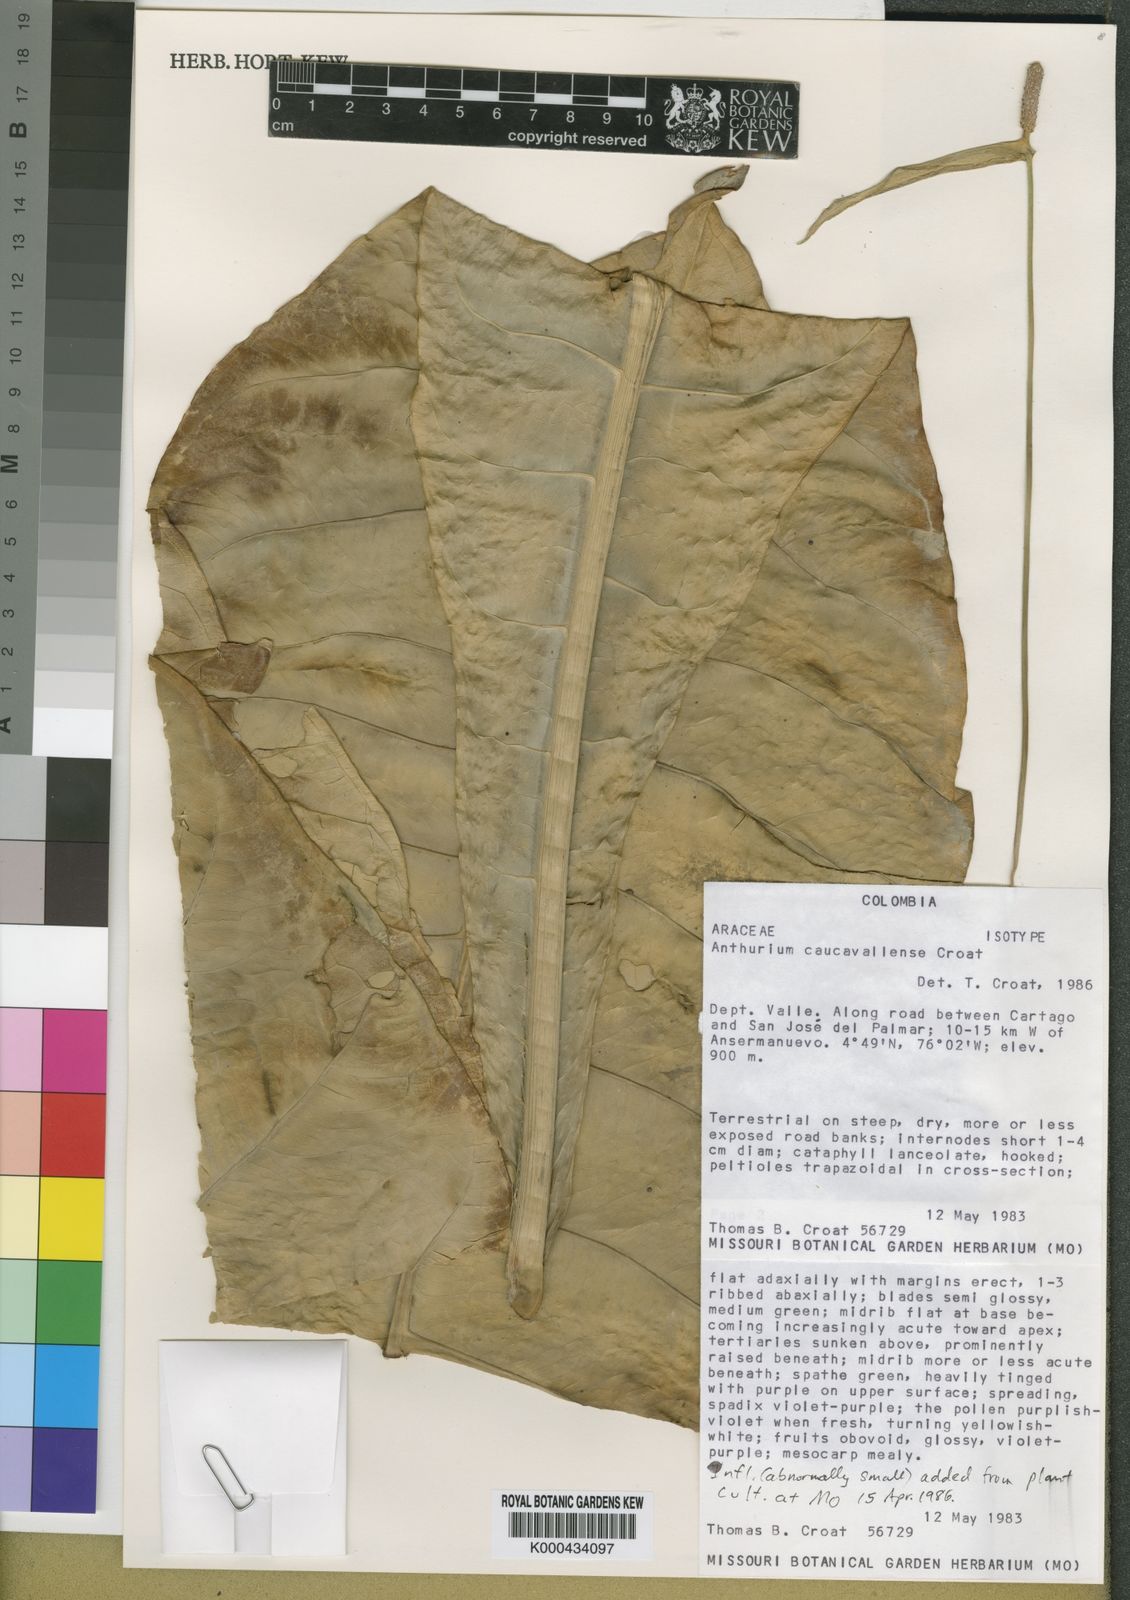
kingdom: Plantae
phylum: Tracheophyta
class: Liliopsida
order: Alismatales
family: Araceae
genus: Anthurium
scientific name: Anthurium caucavallense
